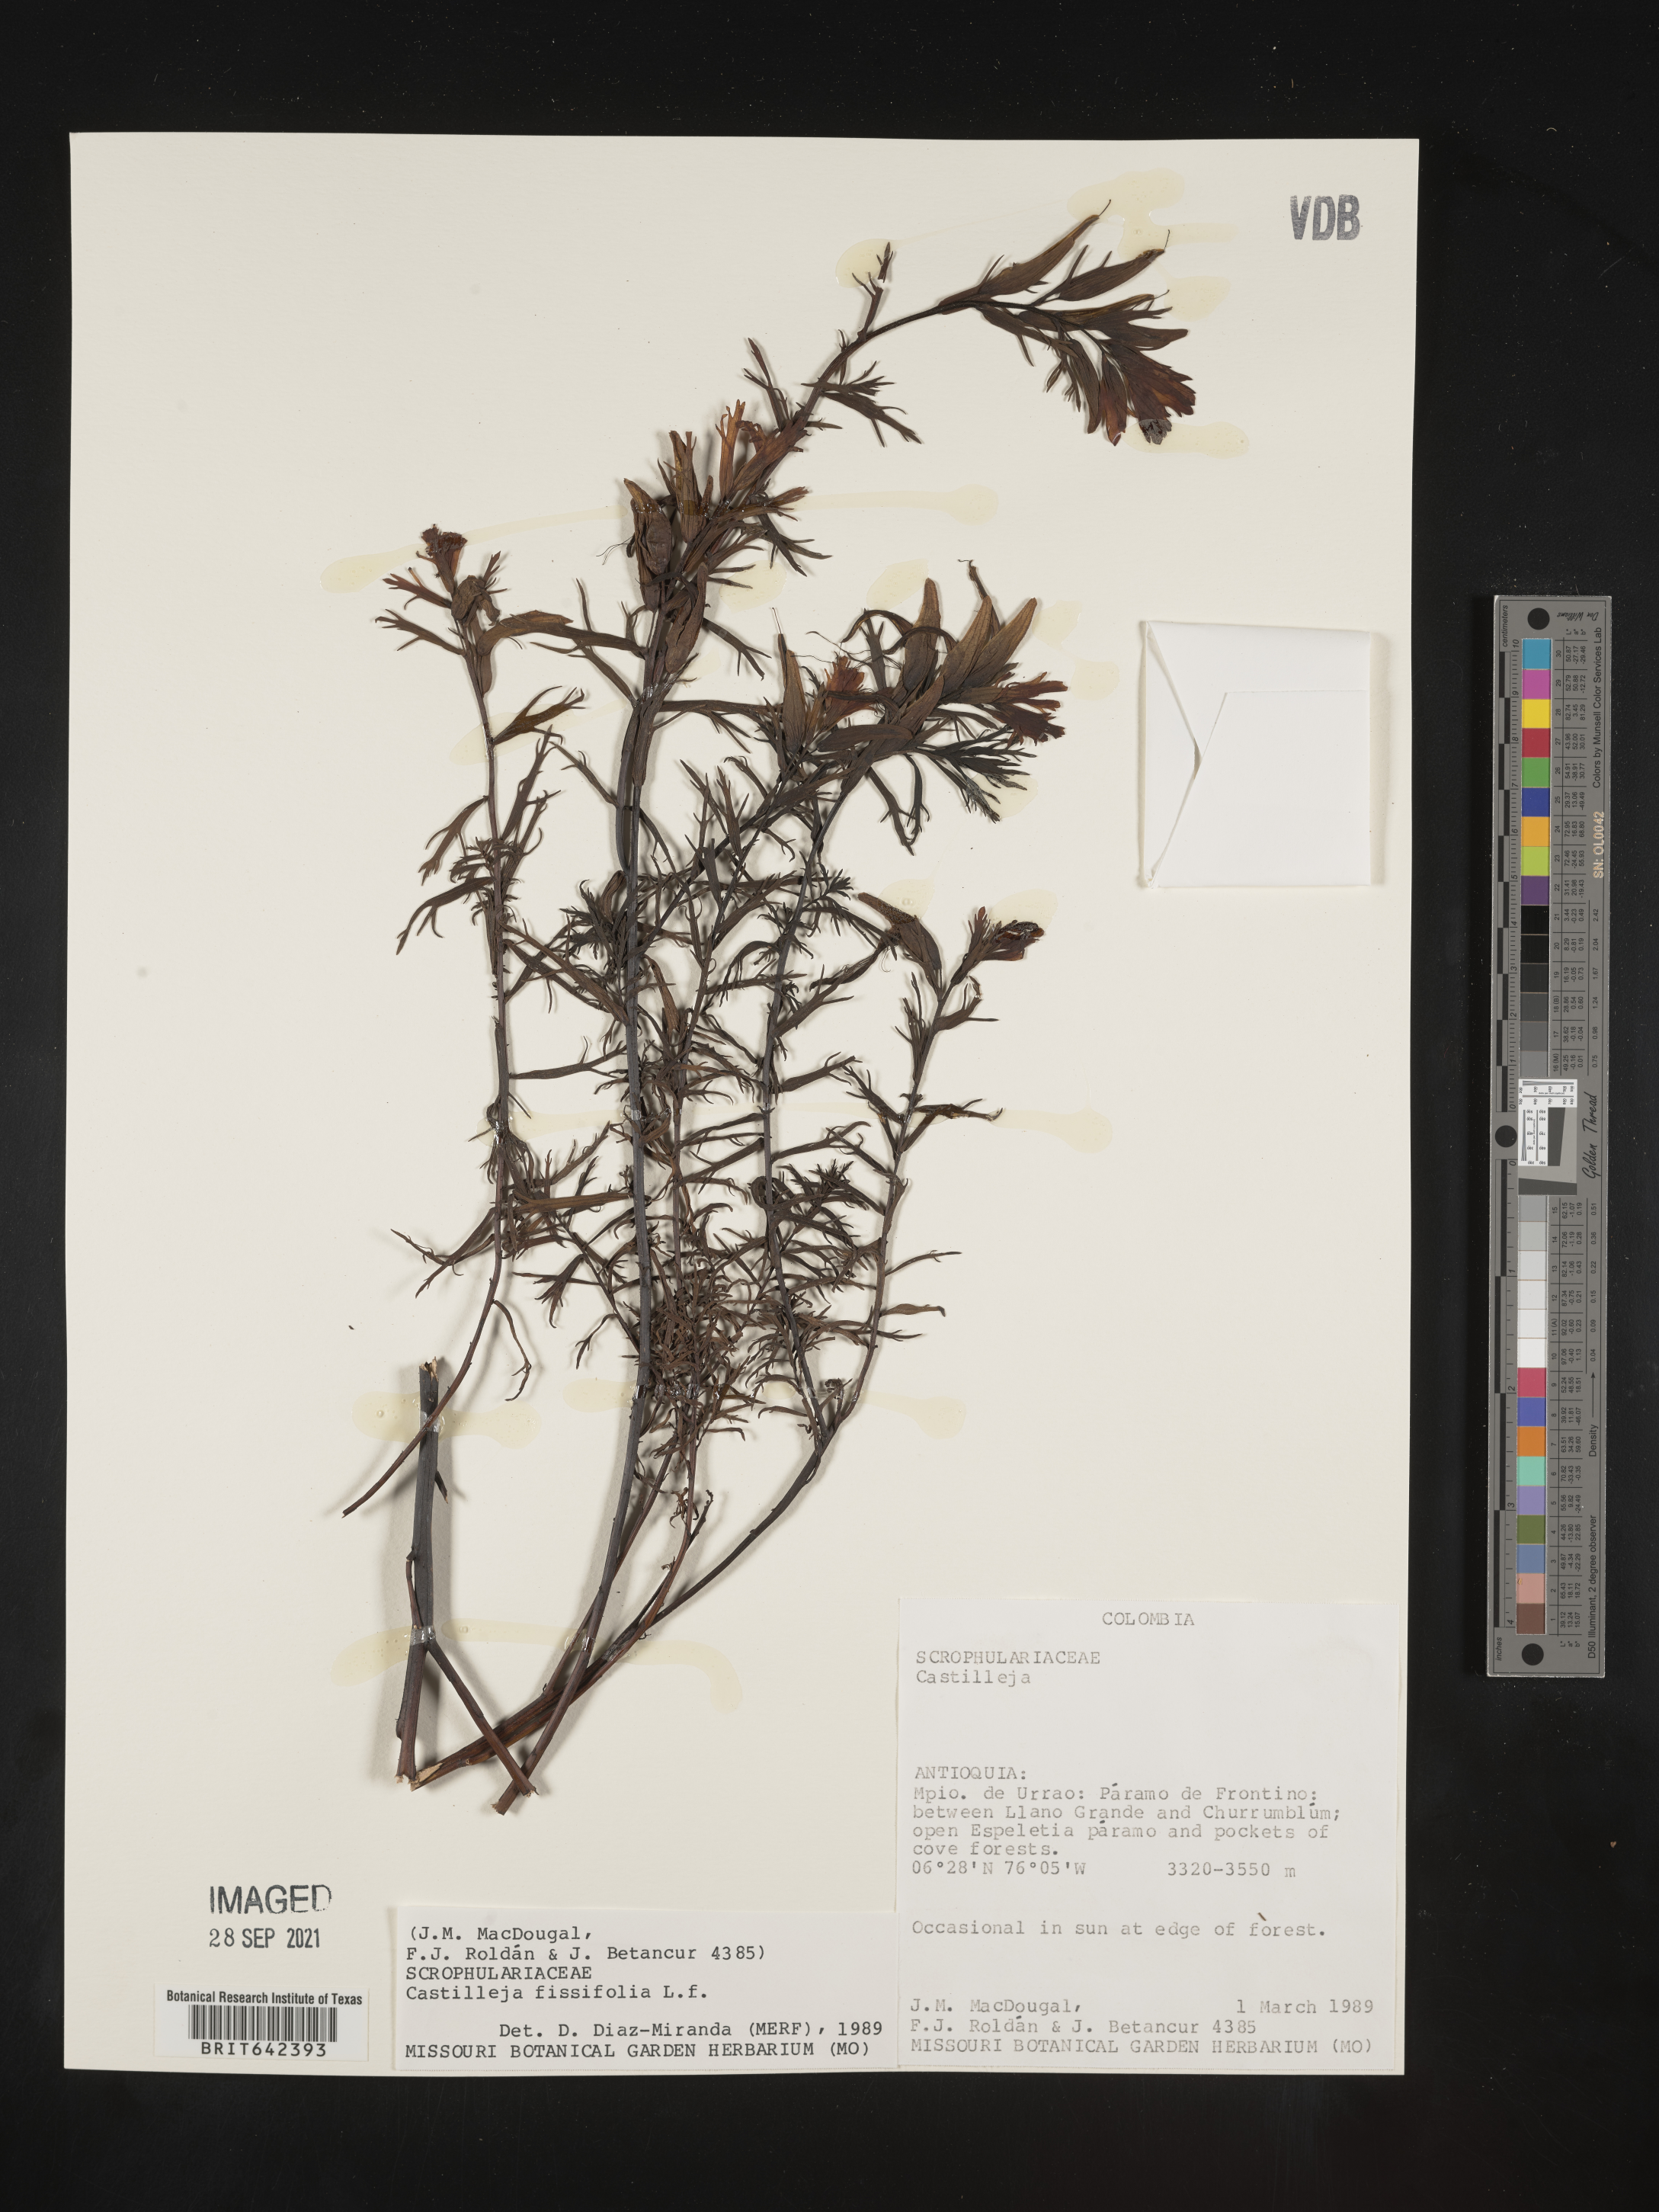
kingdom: Plantae
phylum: Tracheophyta
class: Magnoliopsida
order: Lamiales
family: Orobanchaceae
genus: Castilleja
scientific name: Castilleja
